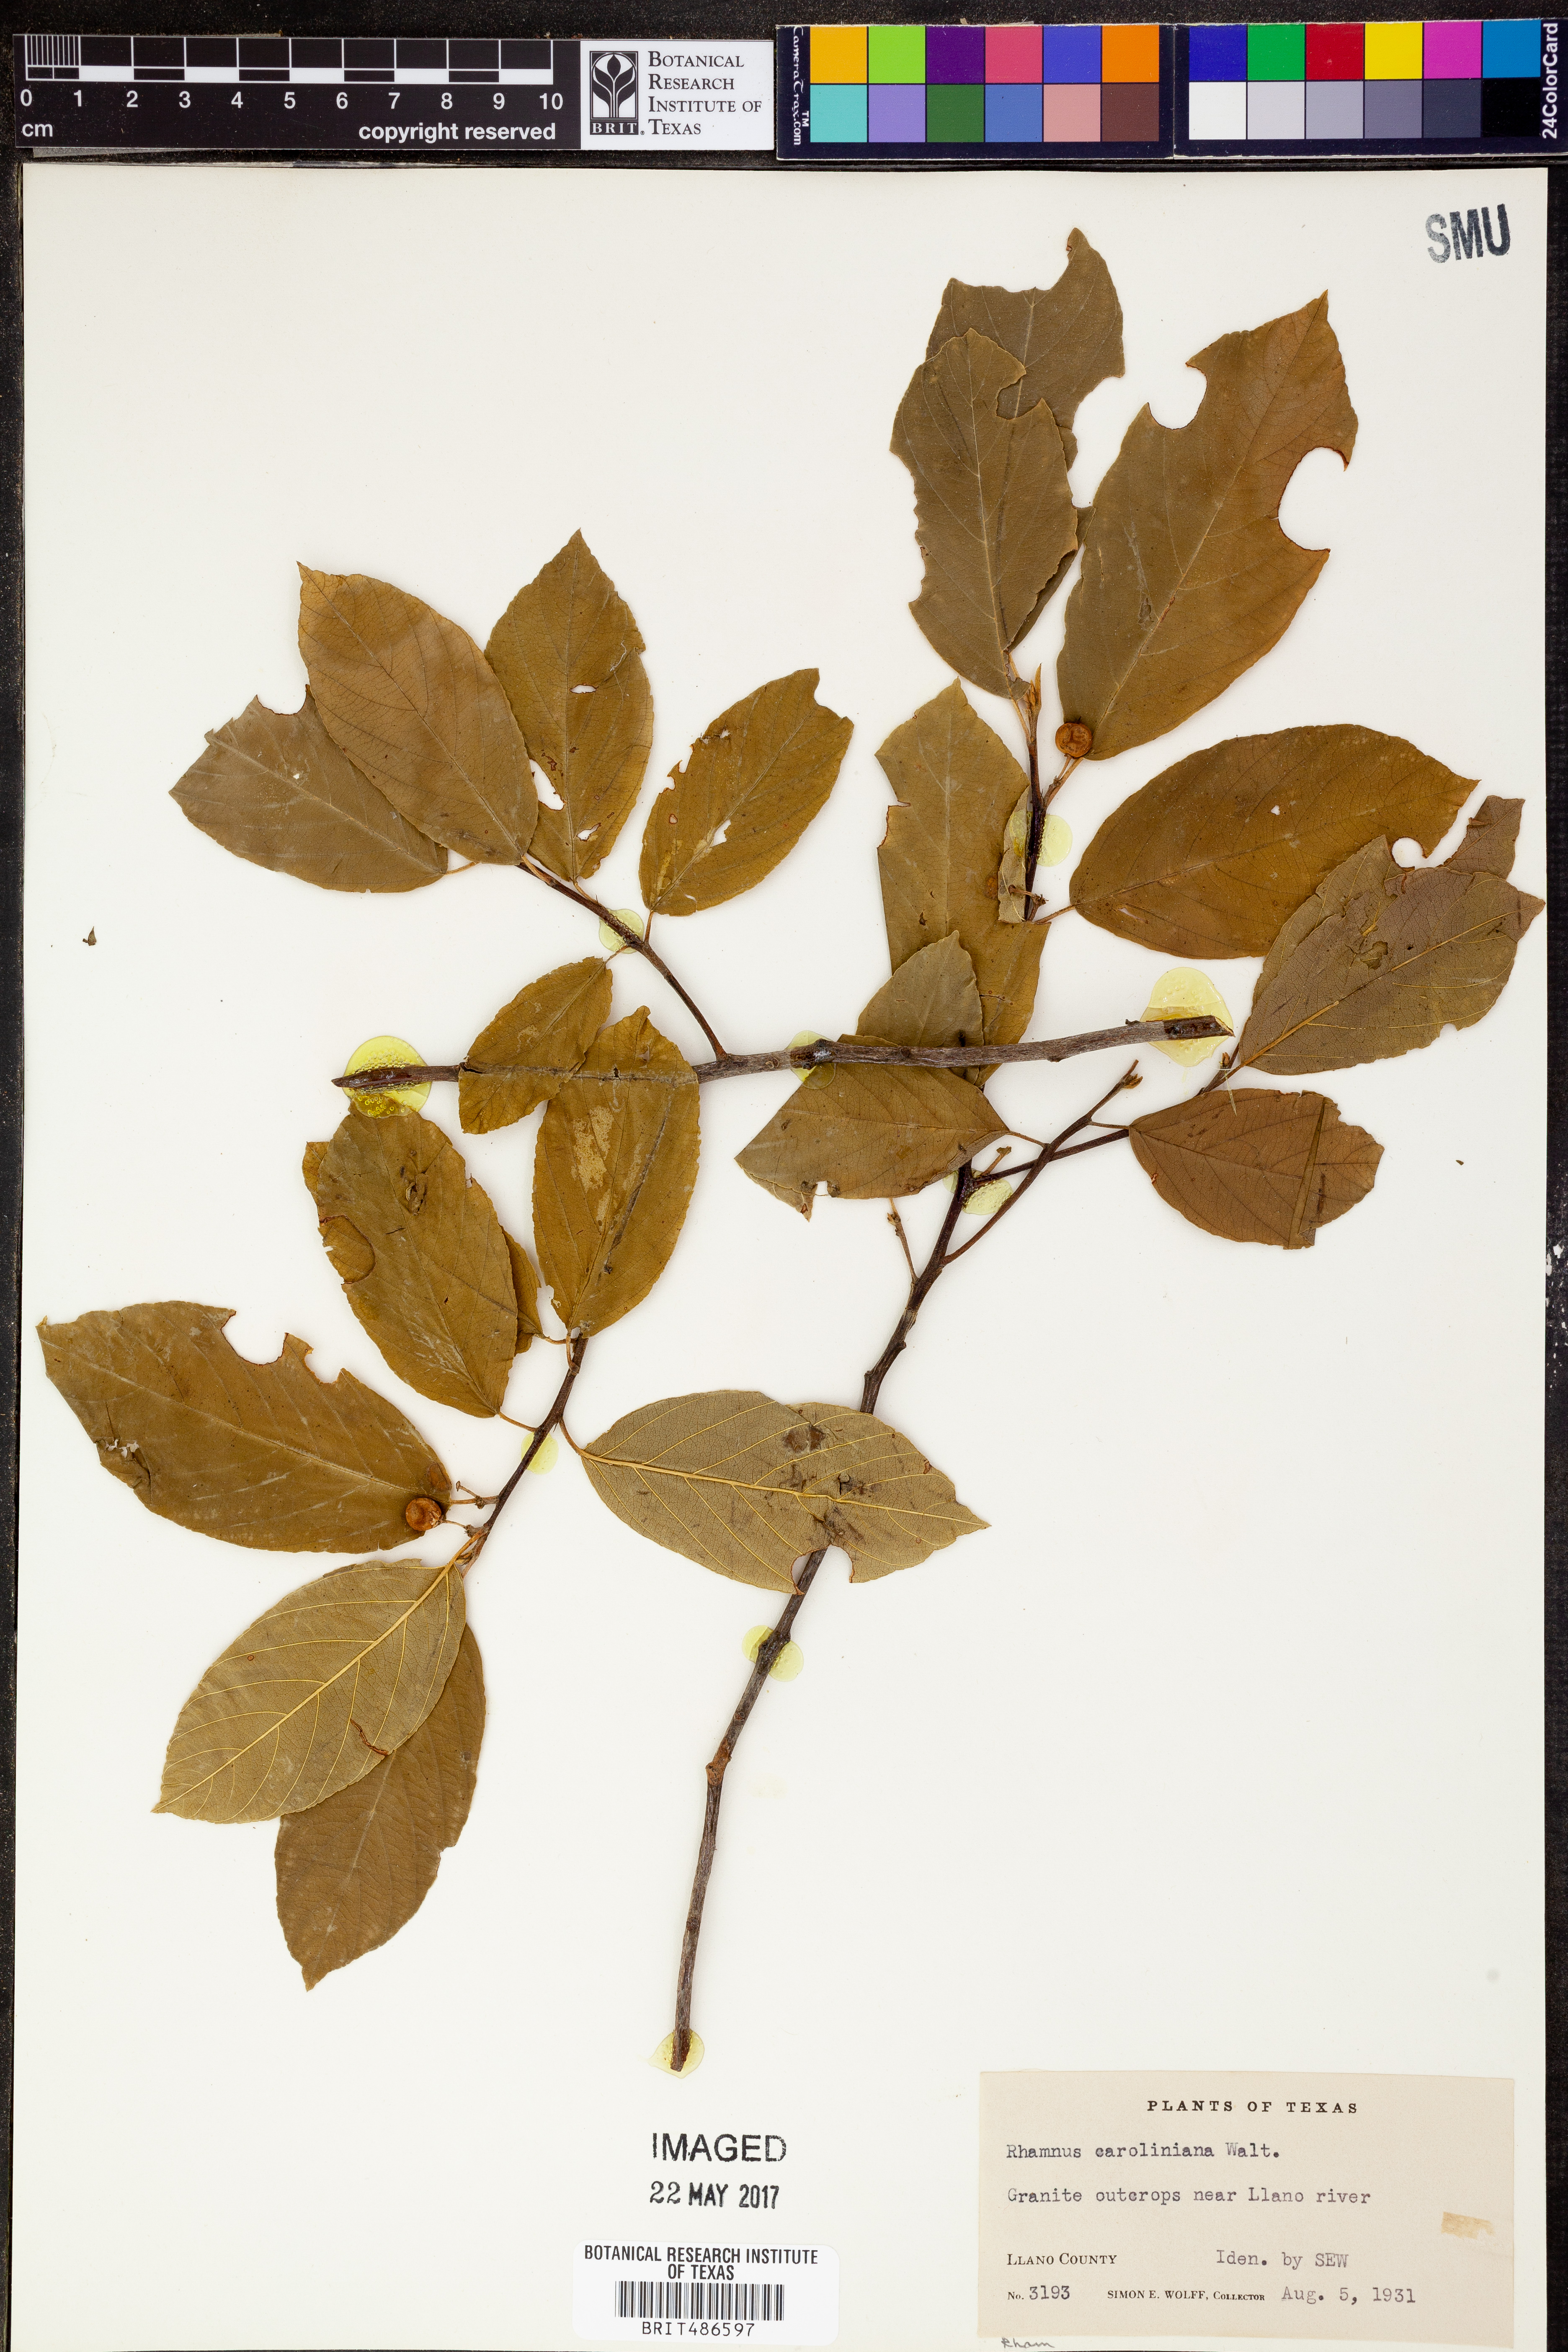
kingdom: Plantae
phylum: Tracheophyta
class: Magnoliopsida
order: Rosales
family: Rhamnaceae
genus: Frangula
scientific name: Frangula caroliniana
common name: Carolina buckthorn
